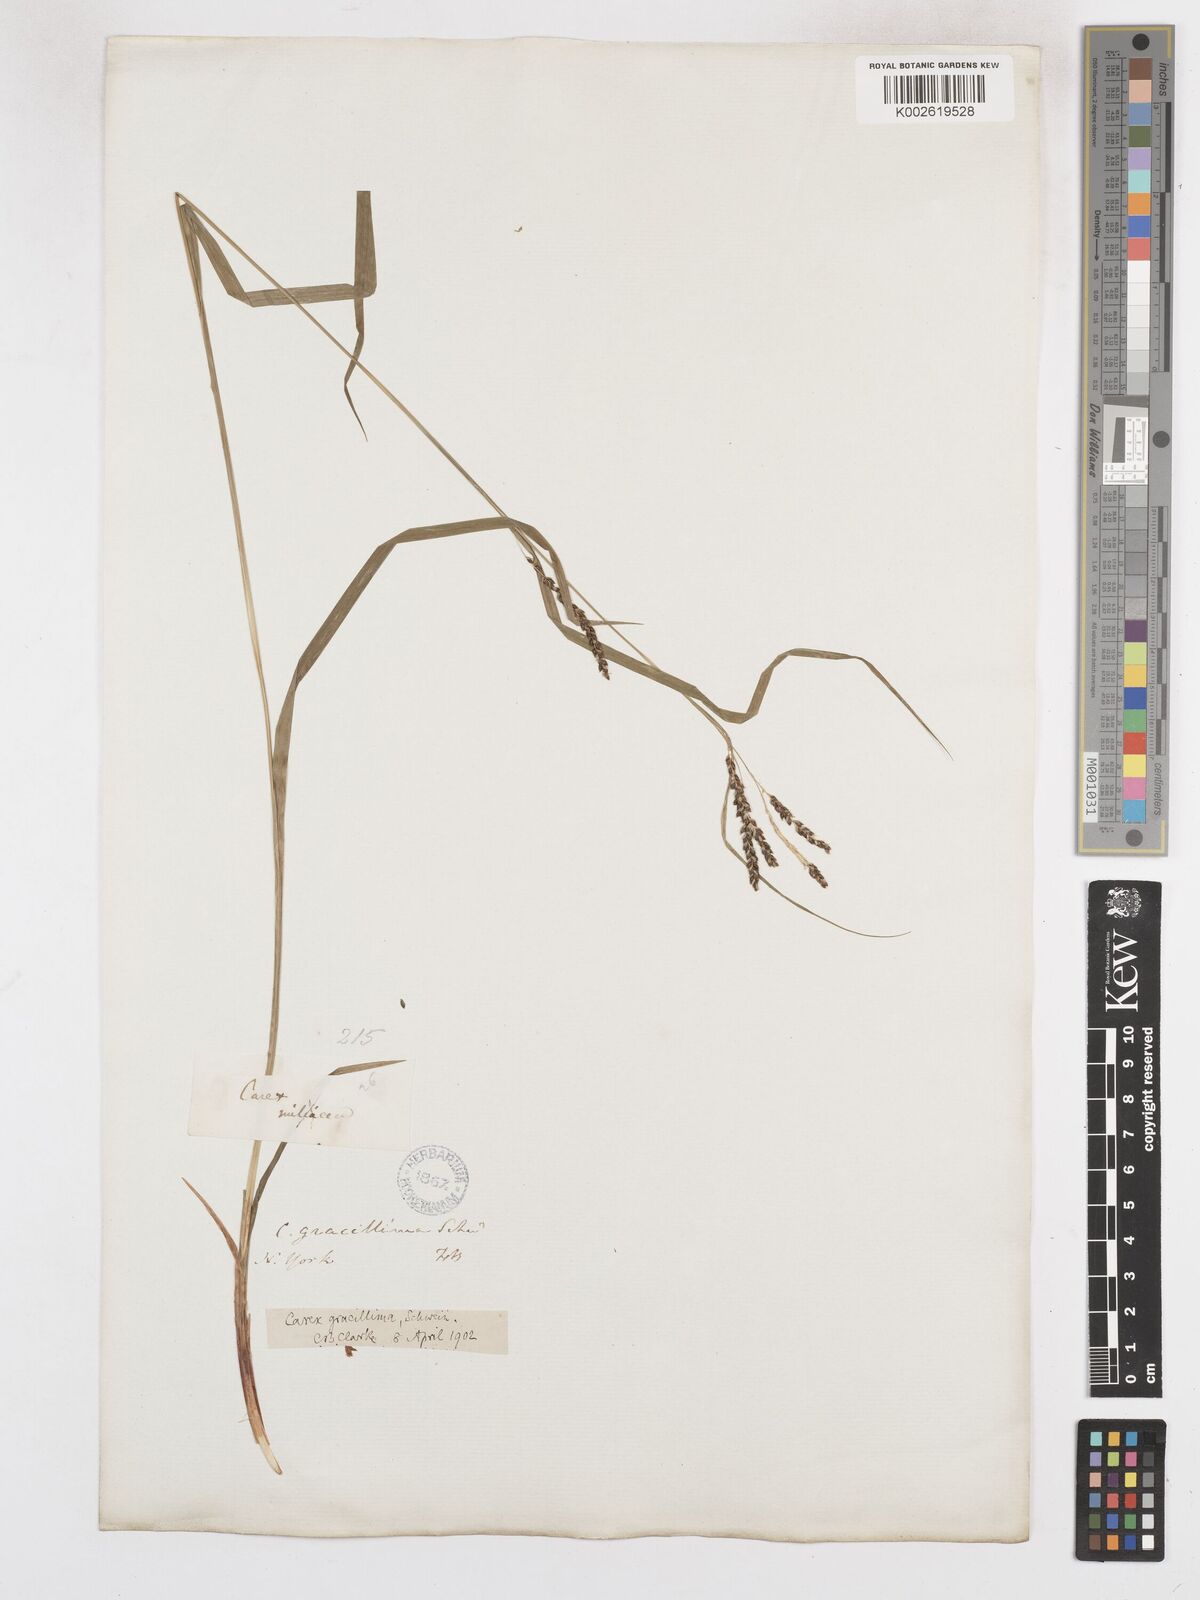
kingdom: Plantae
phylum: Tracheophyta
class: Liliopsida
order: Poales
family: Cyperaceae
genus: Carex
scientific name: Carex gracillima
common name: Graceful sedge
